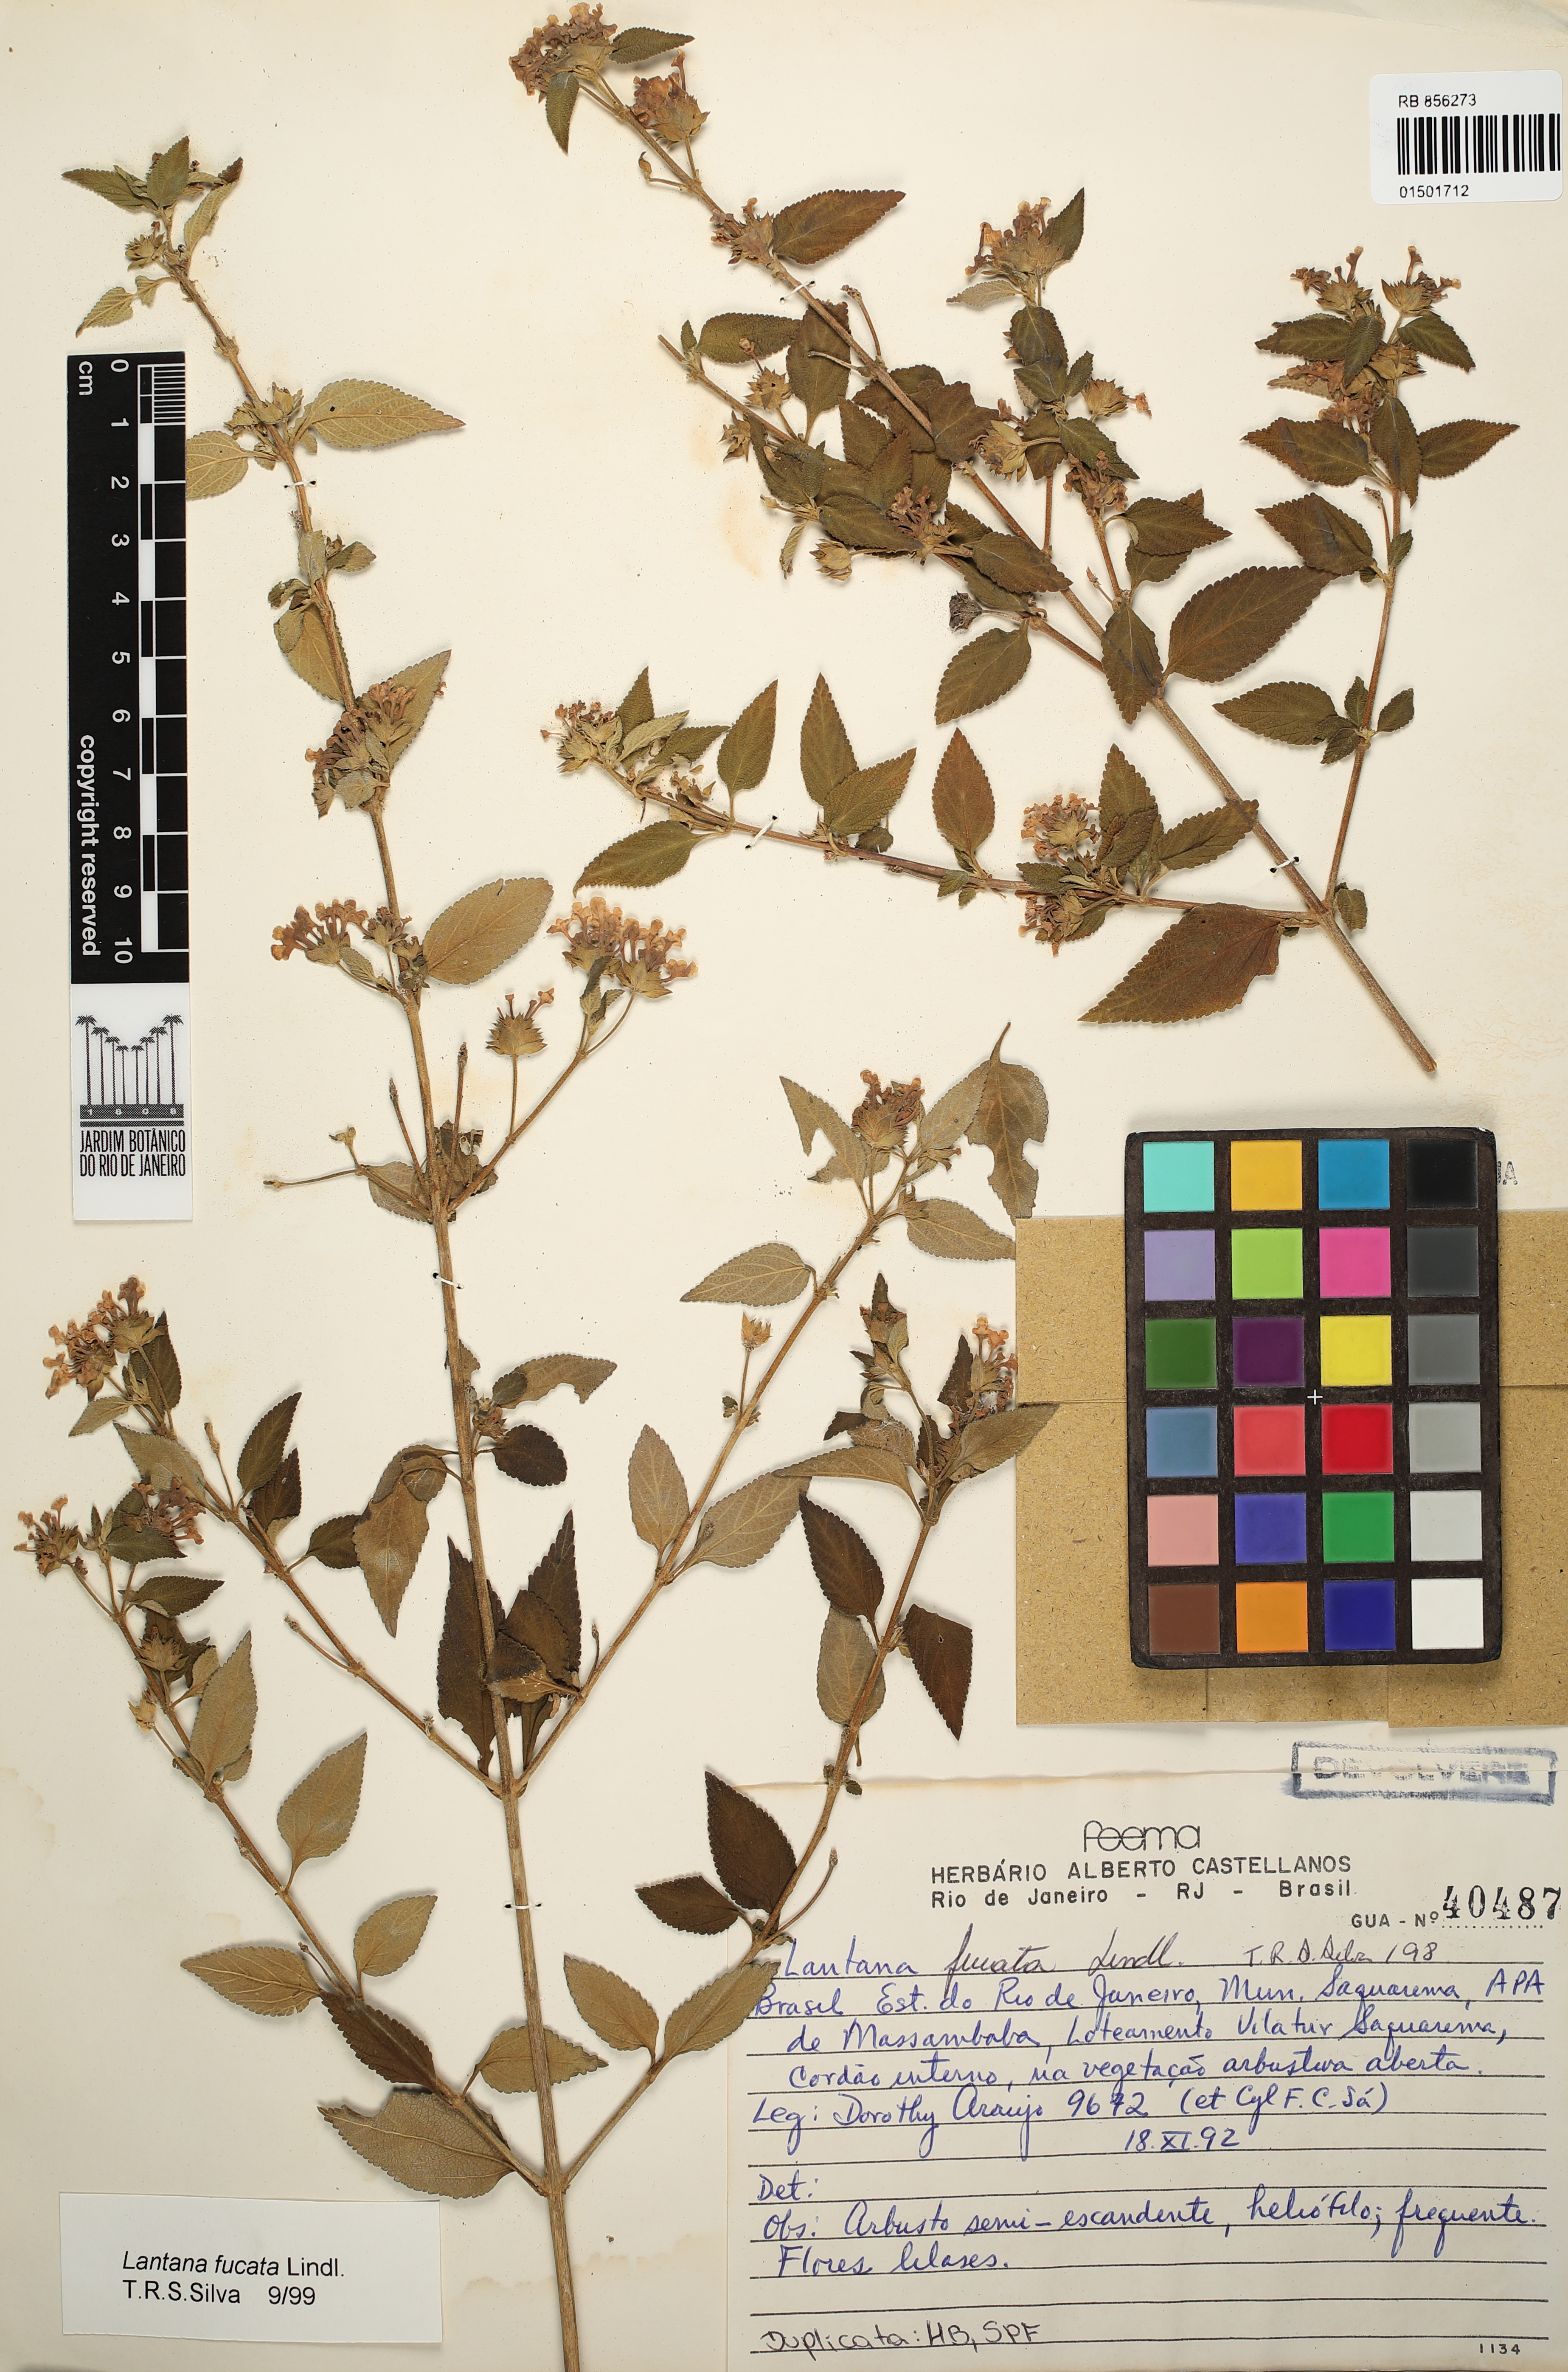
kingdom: Plantae
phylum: Tracheophyta
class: Magnoliopsida
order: Lamiales
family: Verbenaceae
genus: Lantana
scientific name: Lantana fucata
